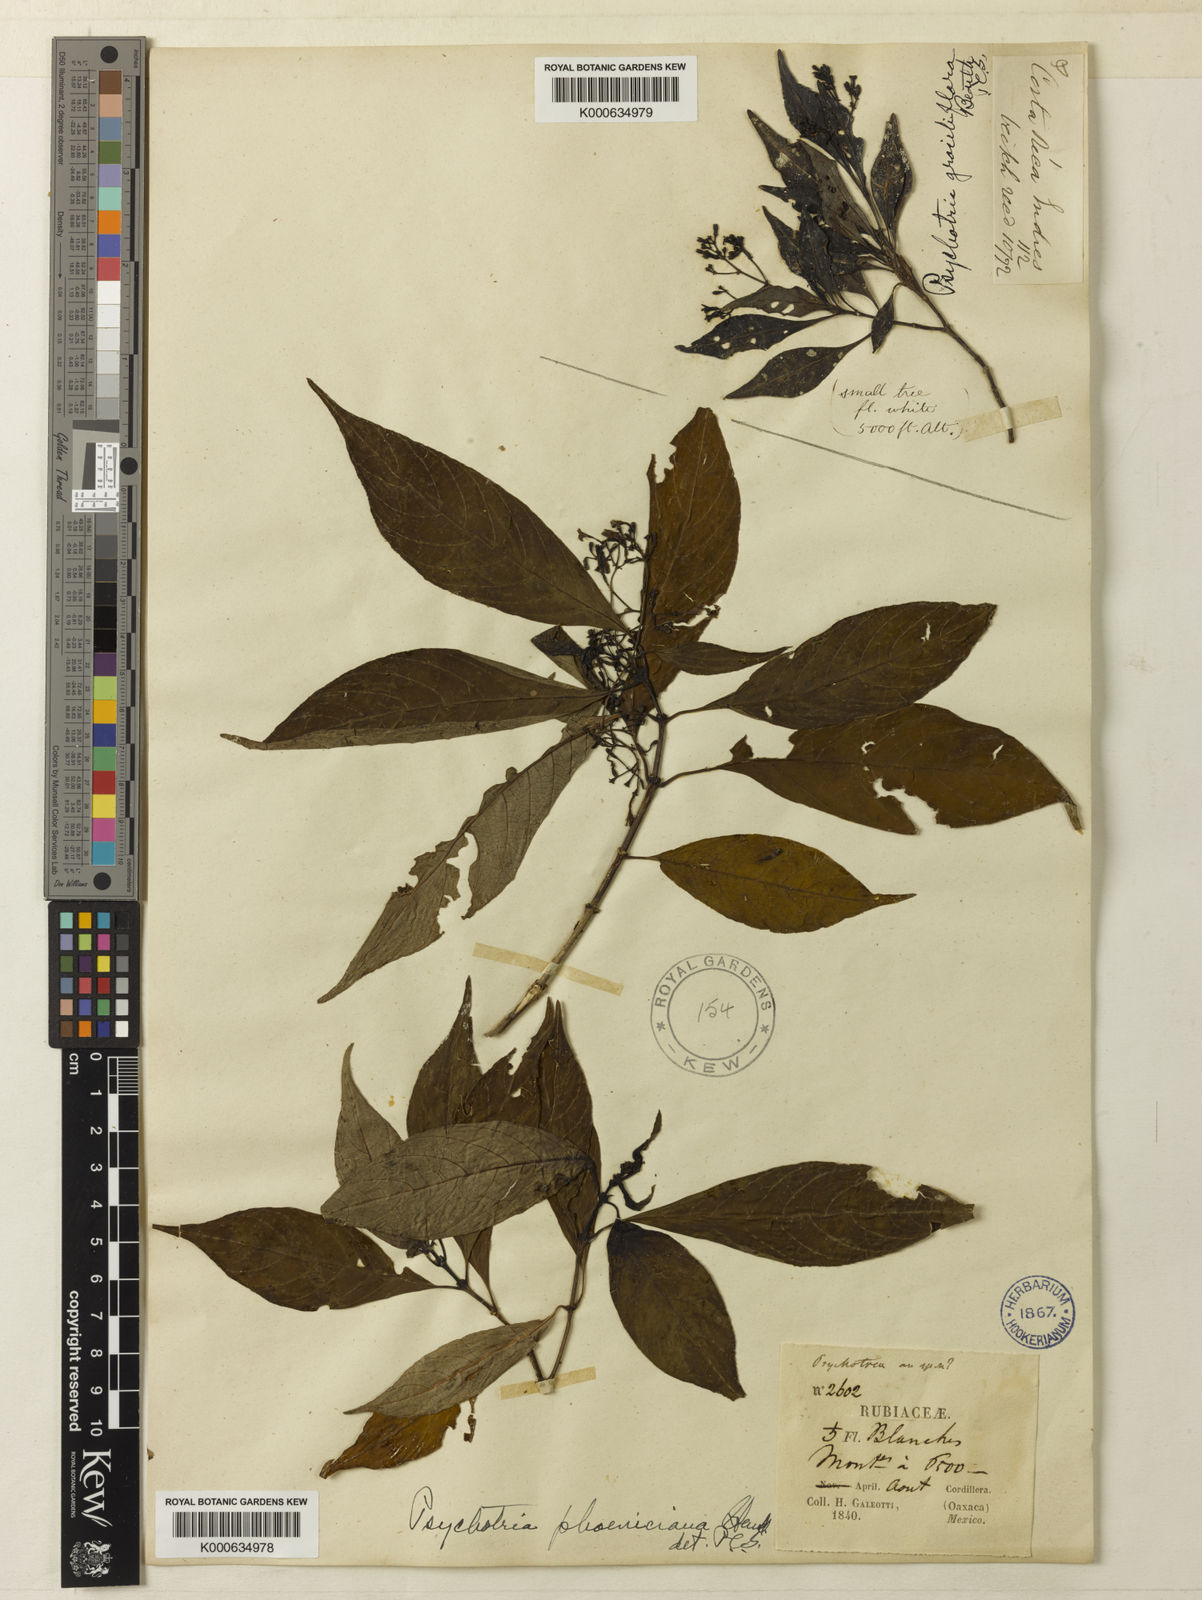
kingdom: Plantae
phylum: Tracheophyta
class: Magnoliopsida
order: Gentianales
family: Rubiaceae
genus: Palicourea
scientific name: Palicourea galeottiana
